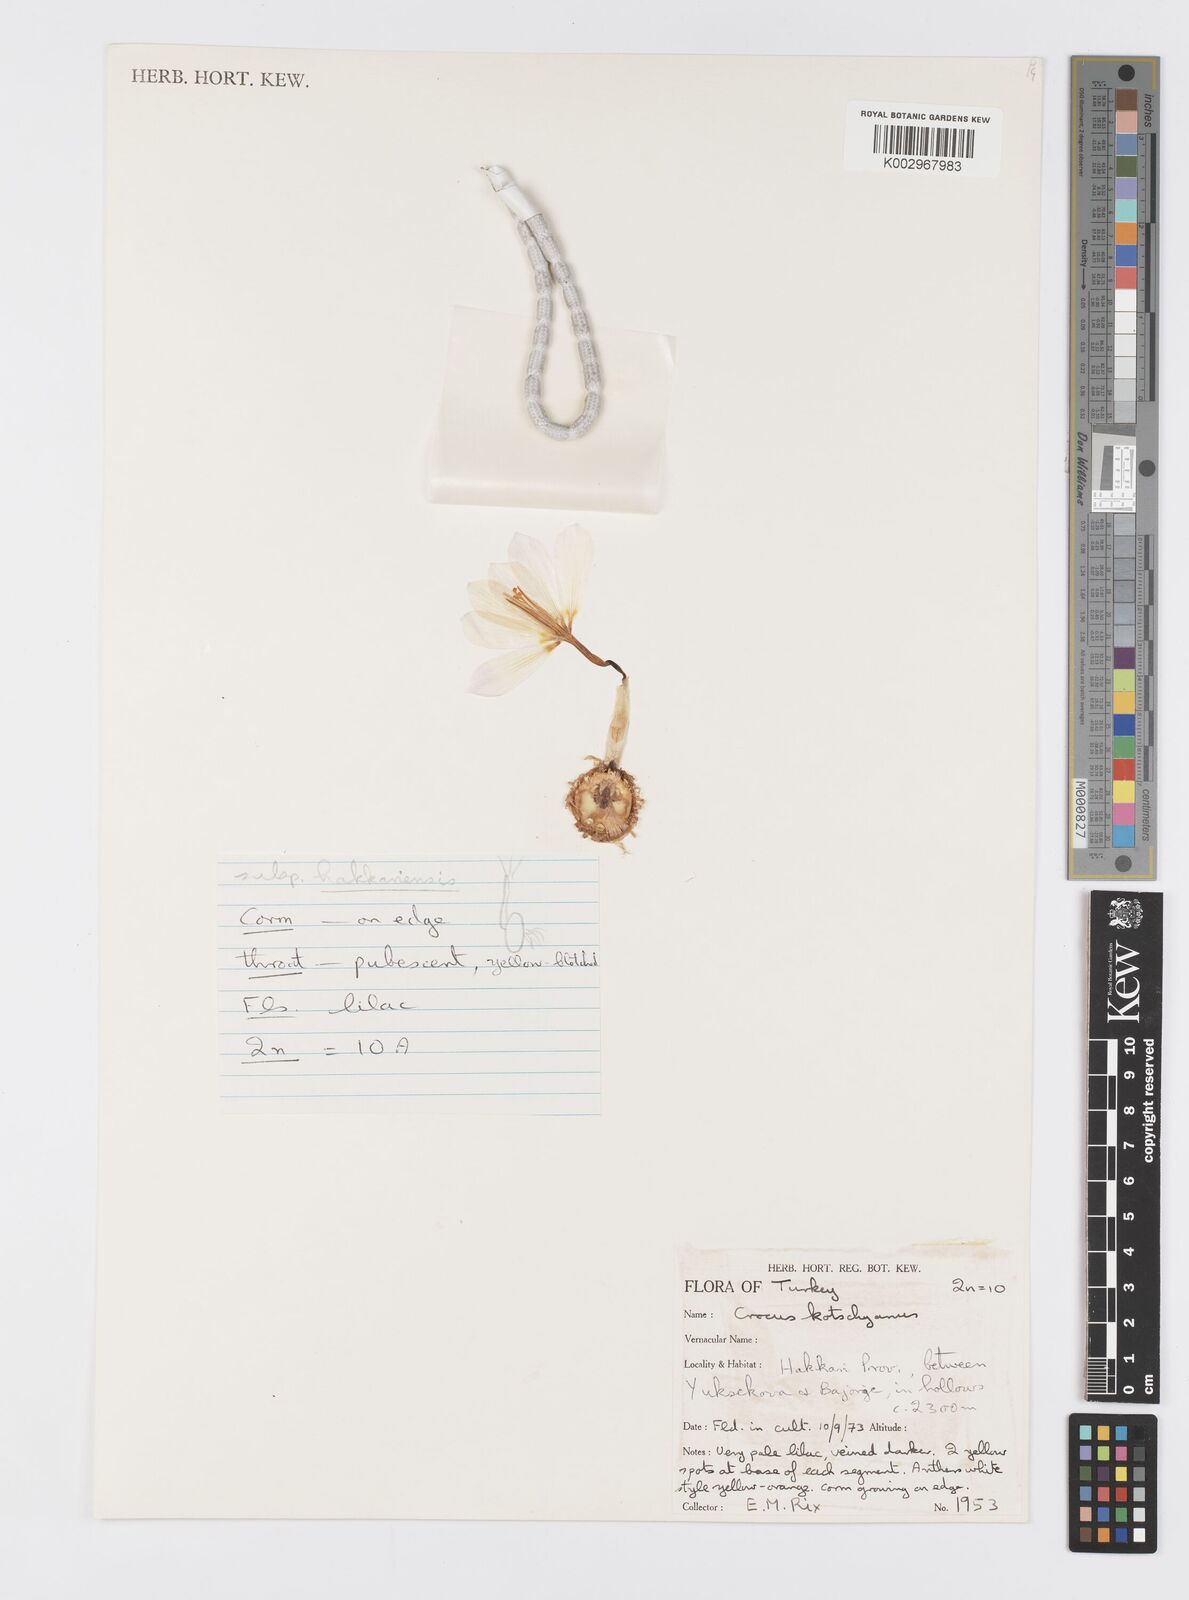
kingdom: Plantae
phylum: Tracheophyta
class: Liliopsida
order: Asparagales
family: Iridaceae
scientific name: Iridaceae
